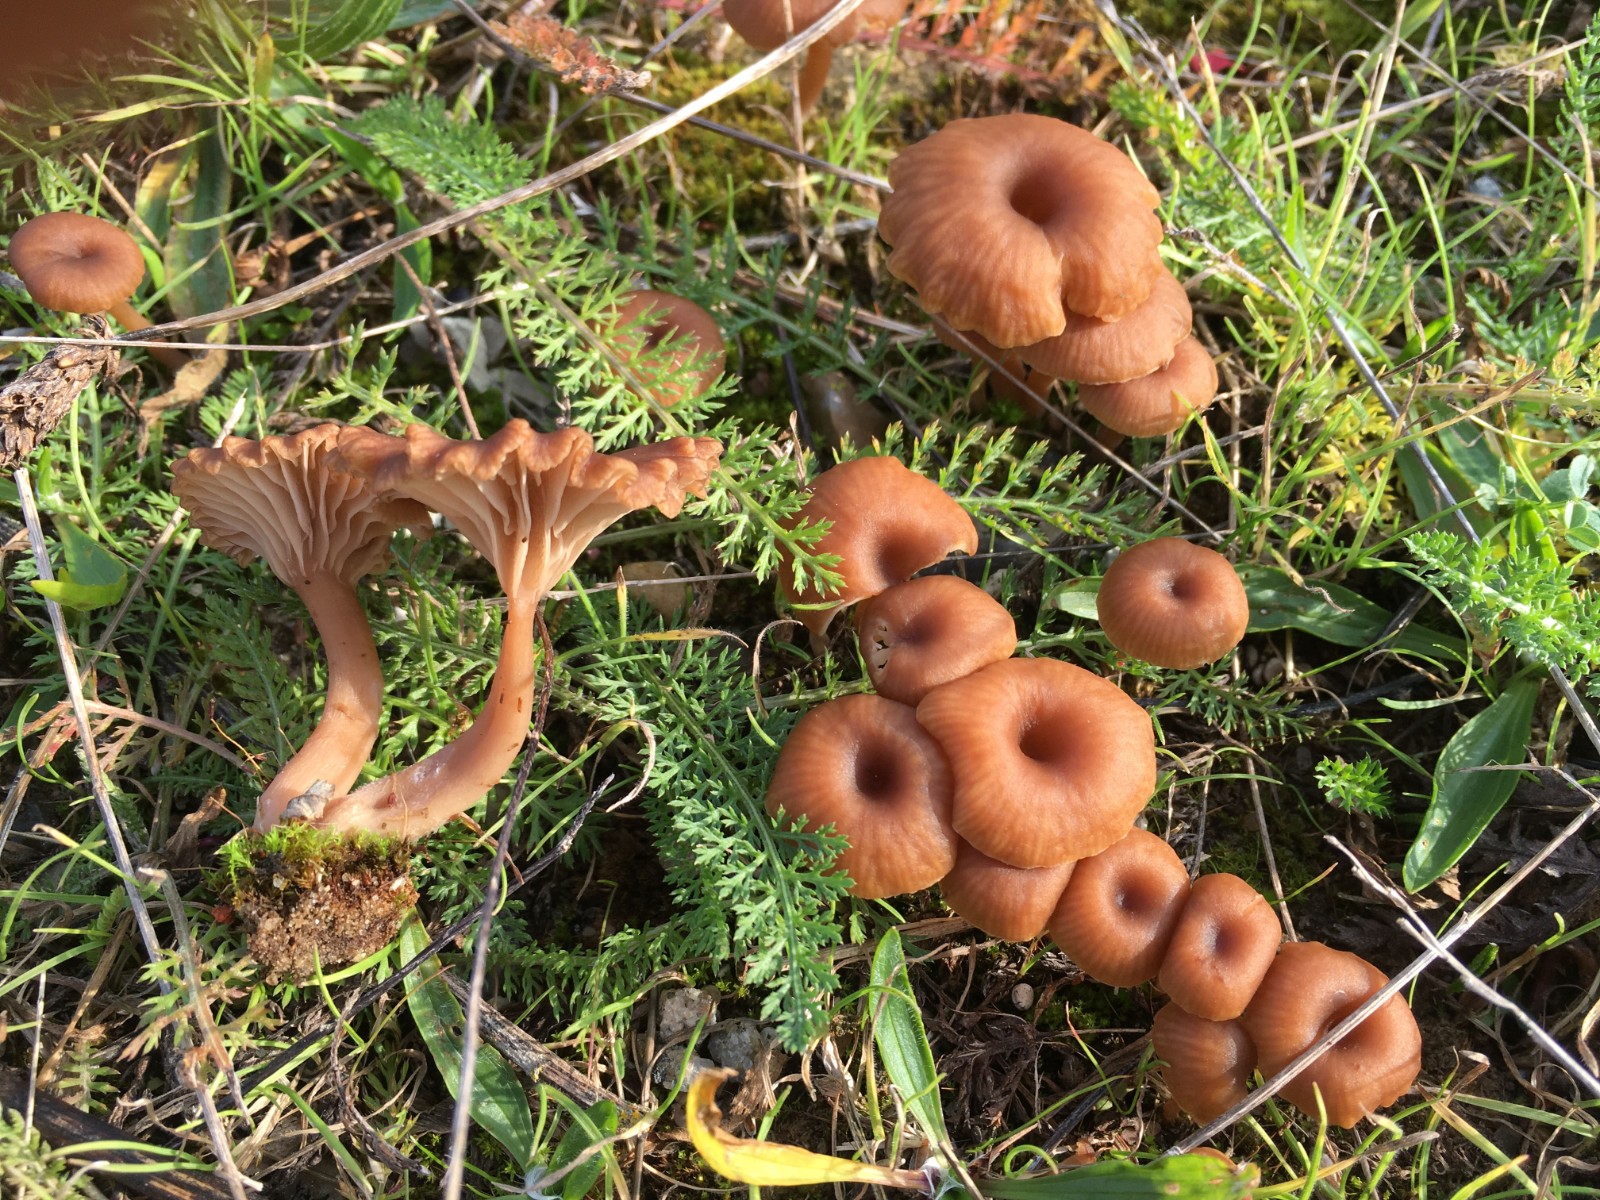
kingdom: Fungi
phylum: Basidiomycota
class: Agaricomycetes
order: Agaricales
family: Tricholomataceae
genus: Omphalina
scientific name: Omphalina pyxidata
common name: rødbrun navlehat
